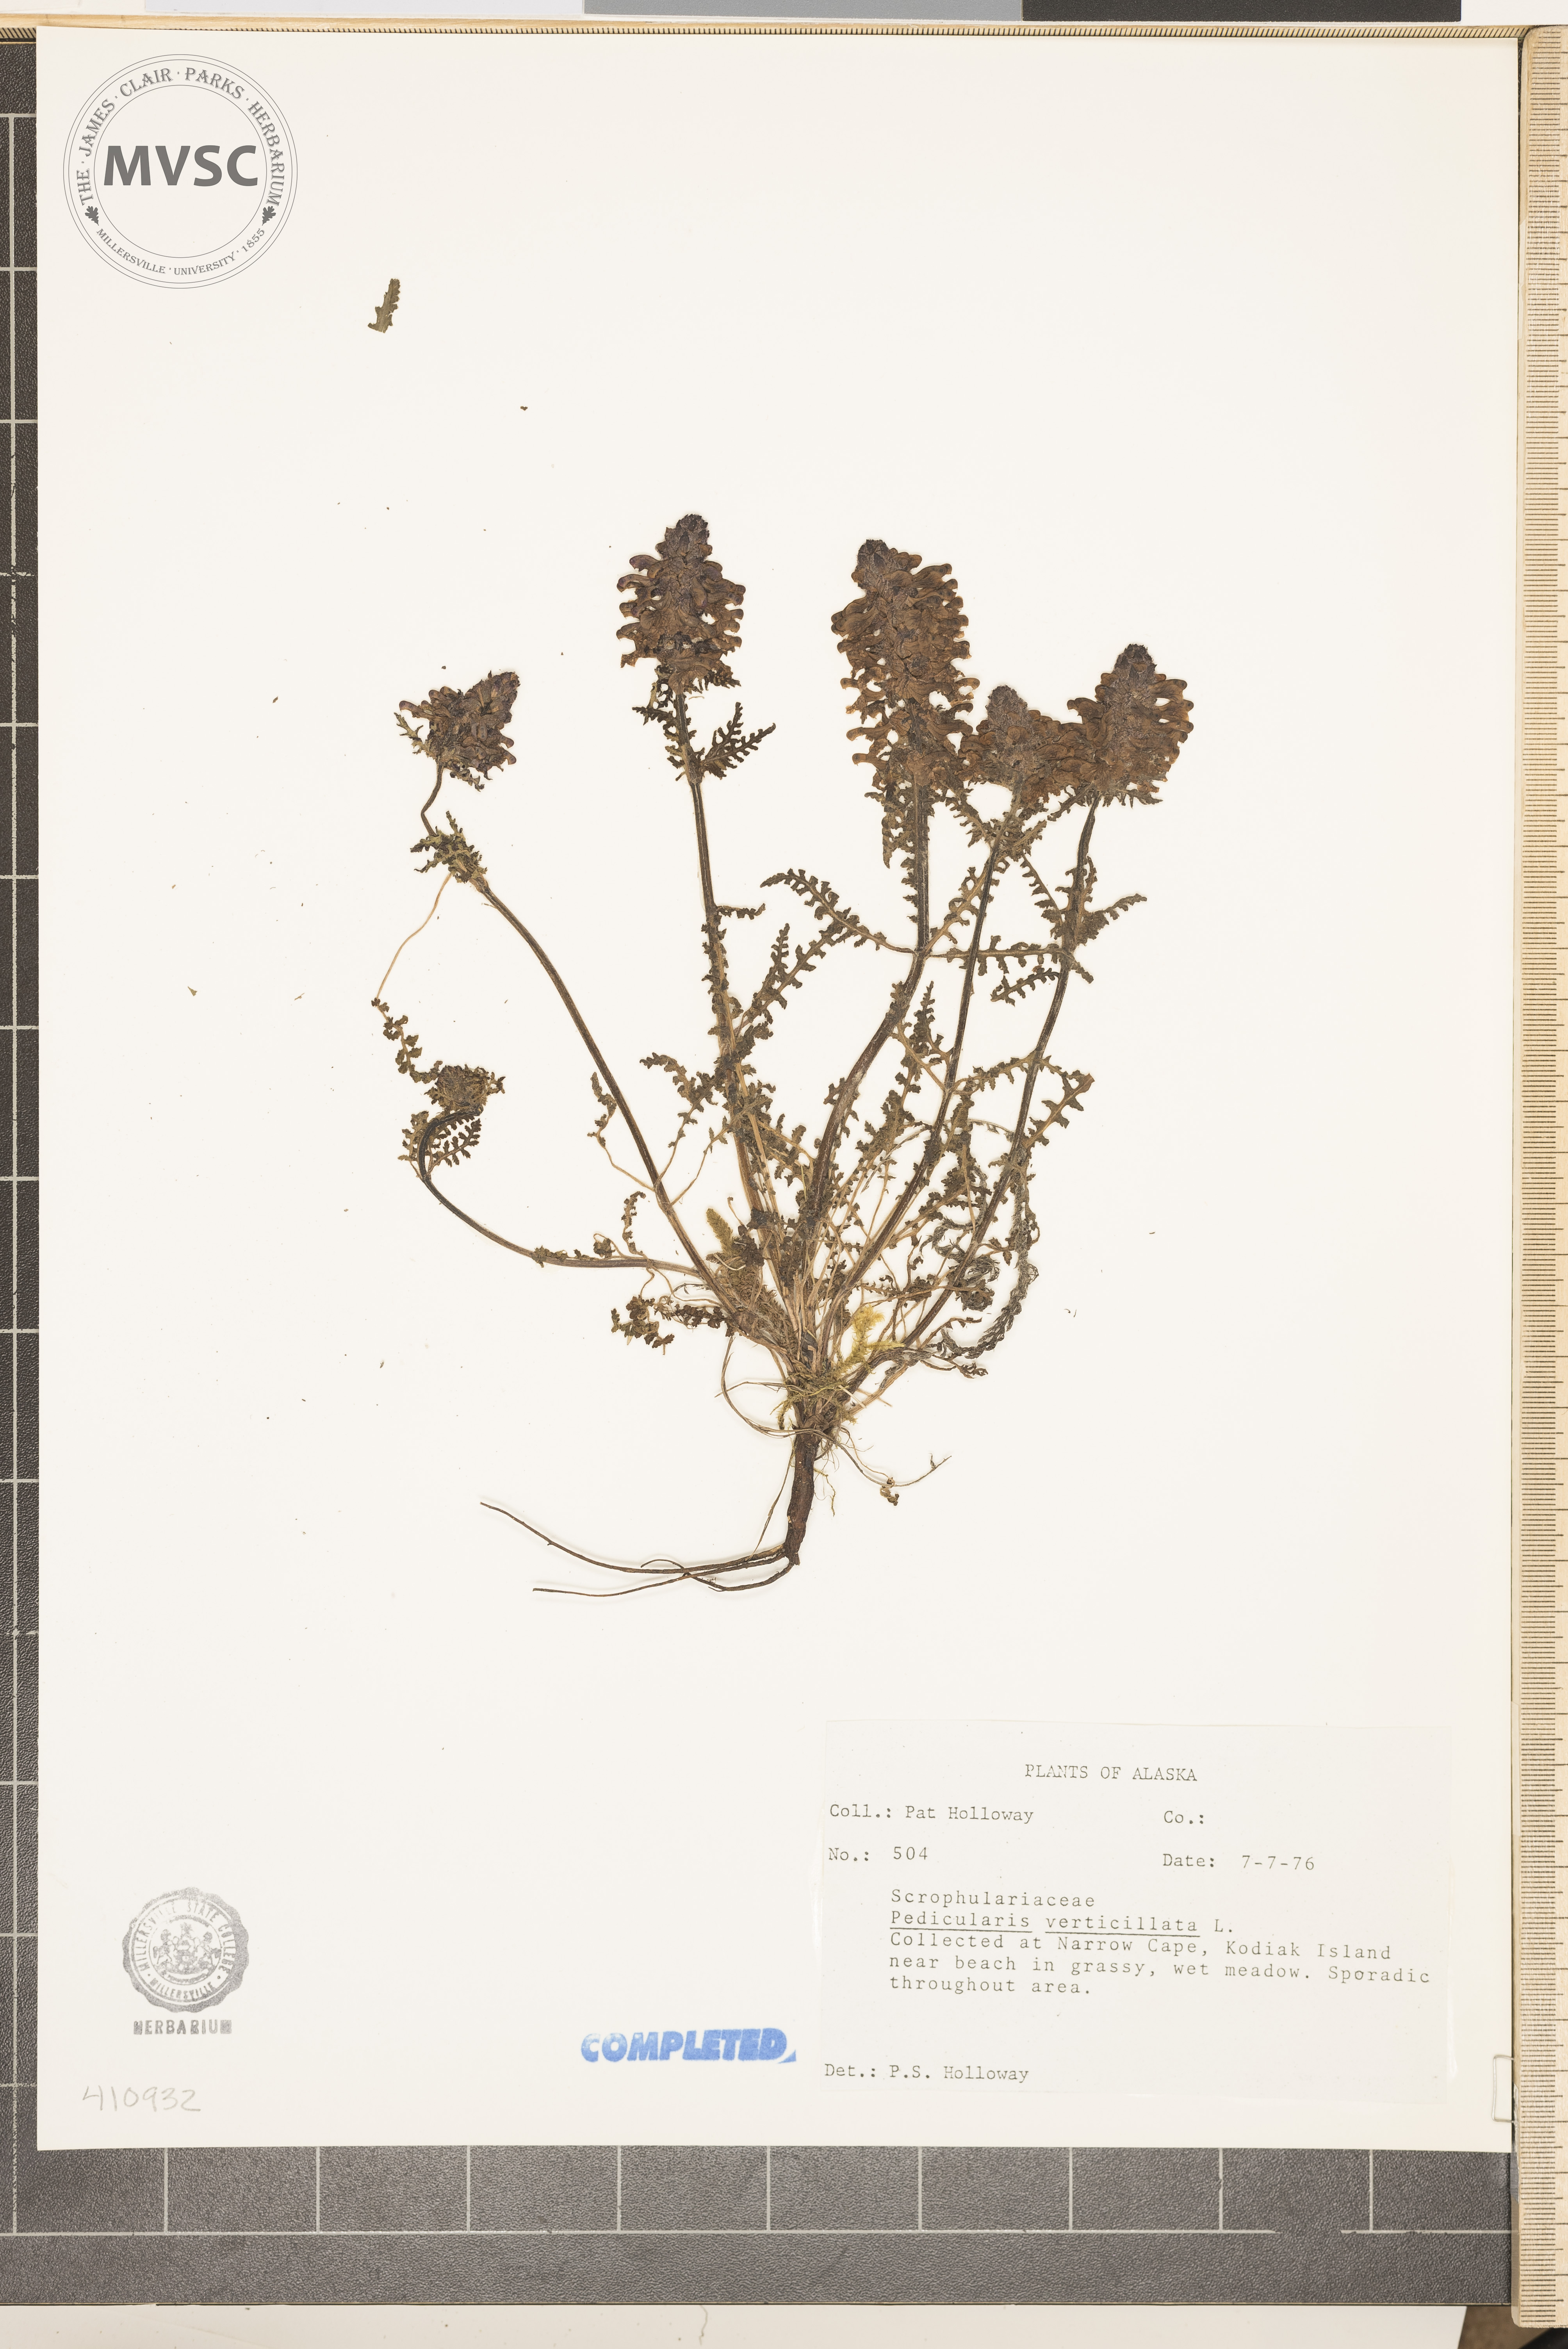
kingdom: Plantae
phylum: Tracheophyta
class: Magnoliopsida
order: Lamiales
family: Orobanchaceae
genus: Pedicularis
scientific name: Pedicularis verticillata
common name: Whorled lousewort
